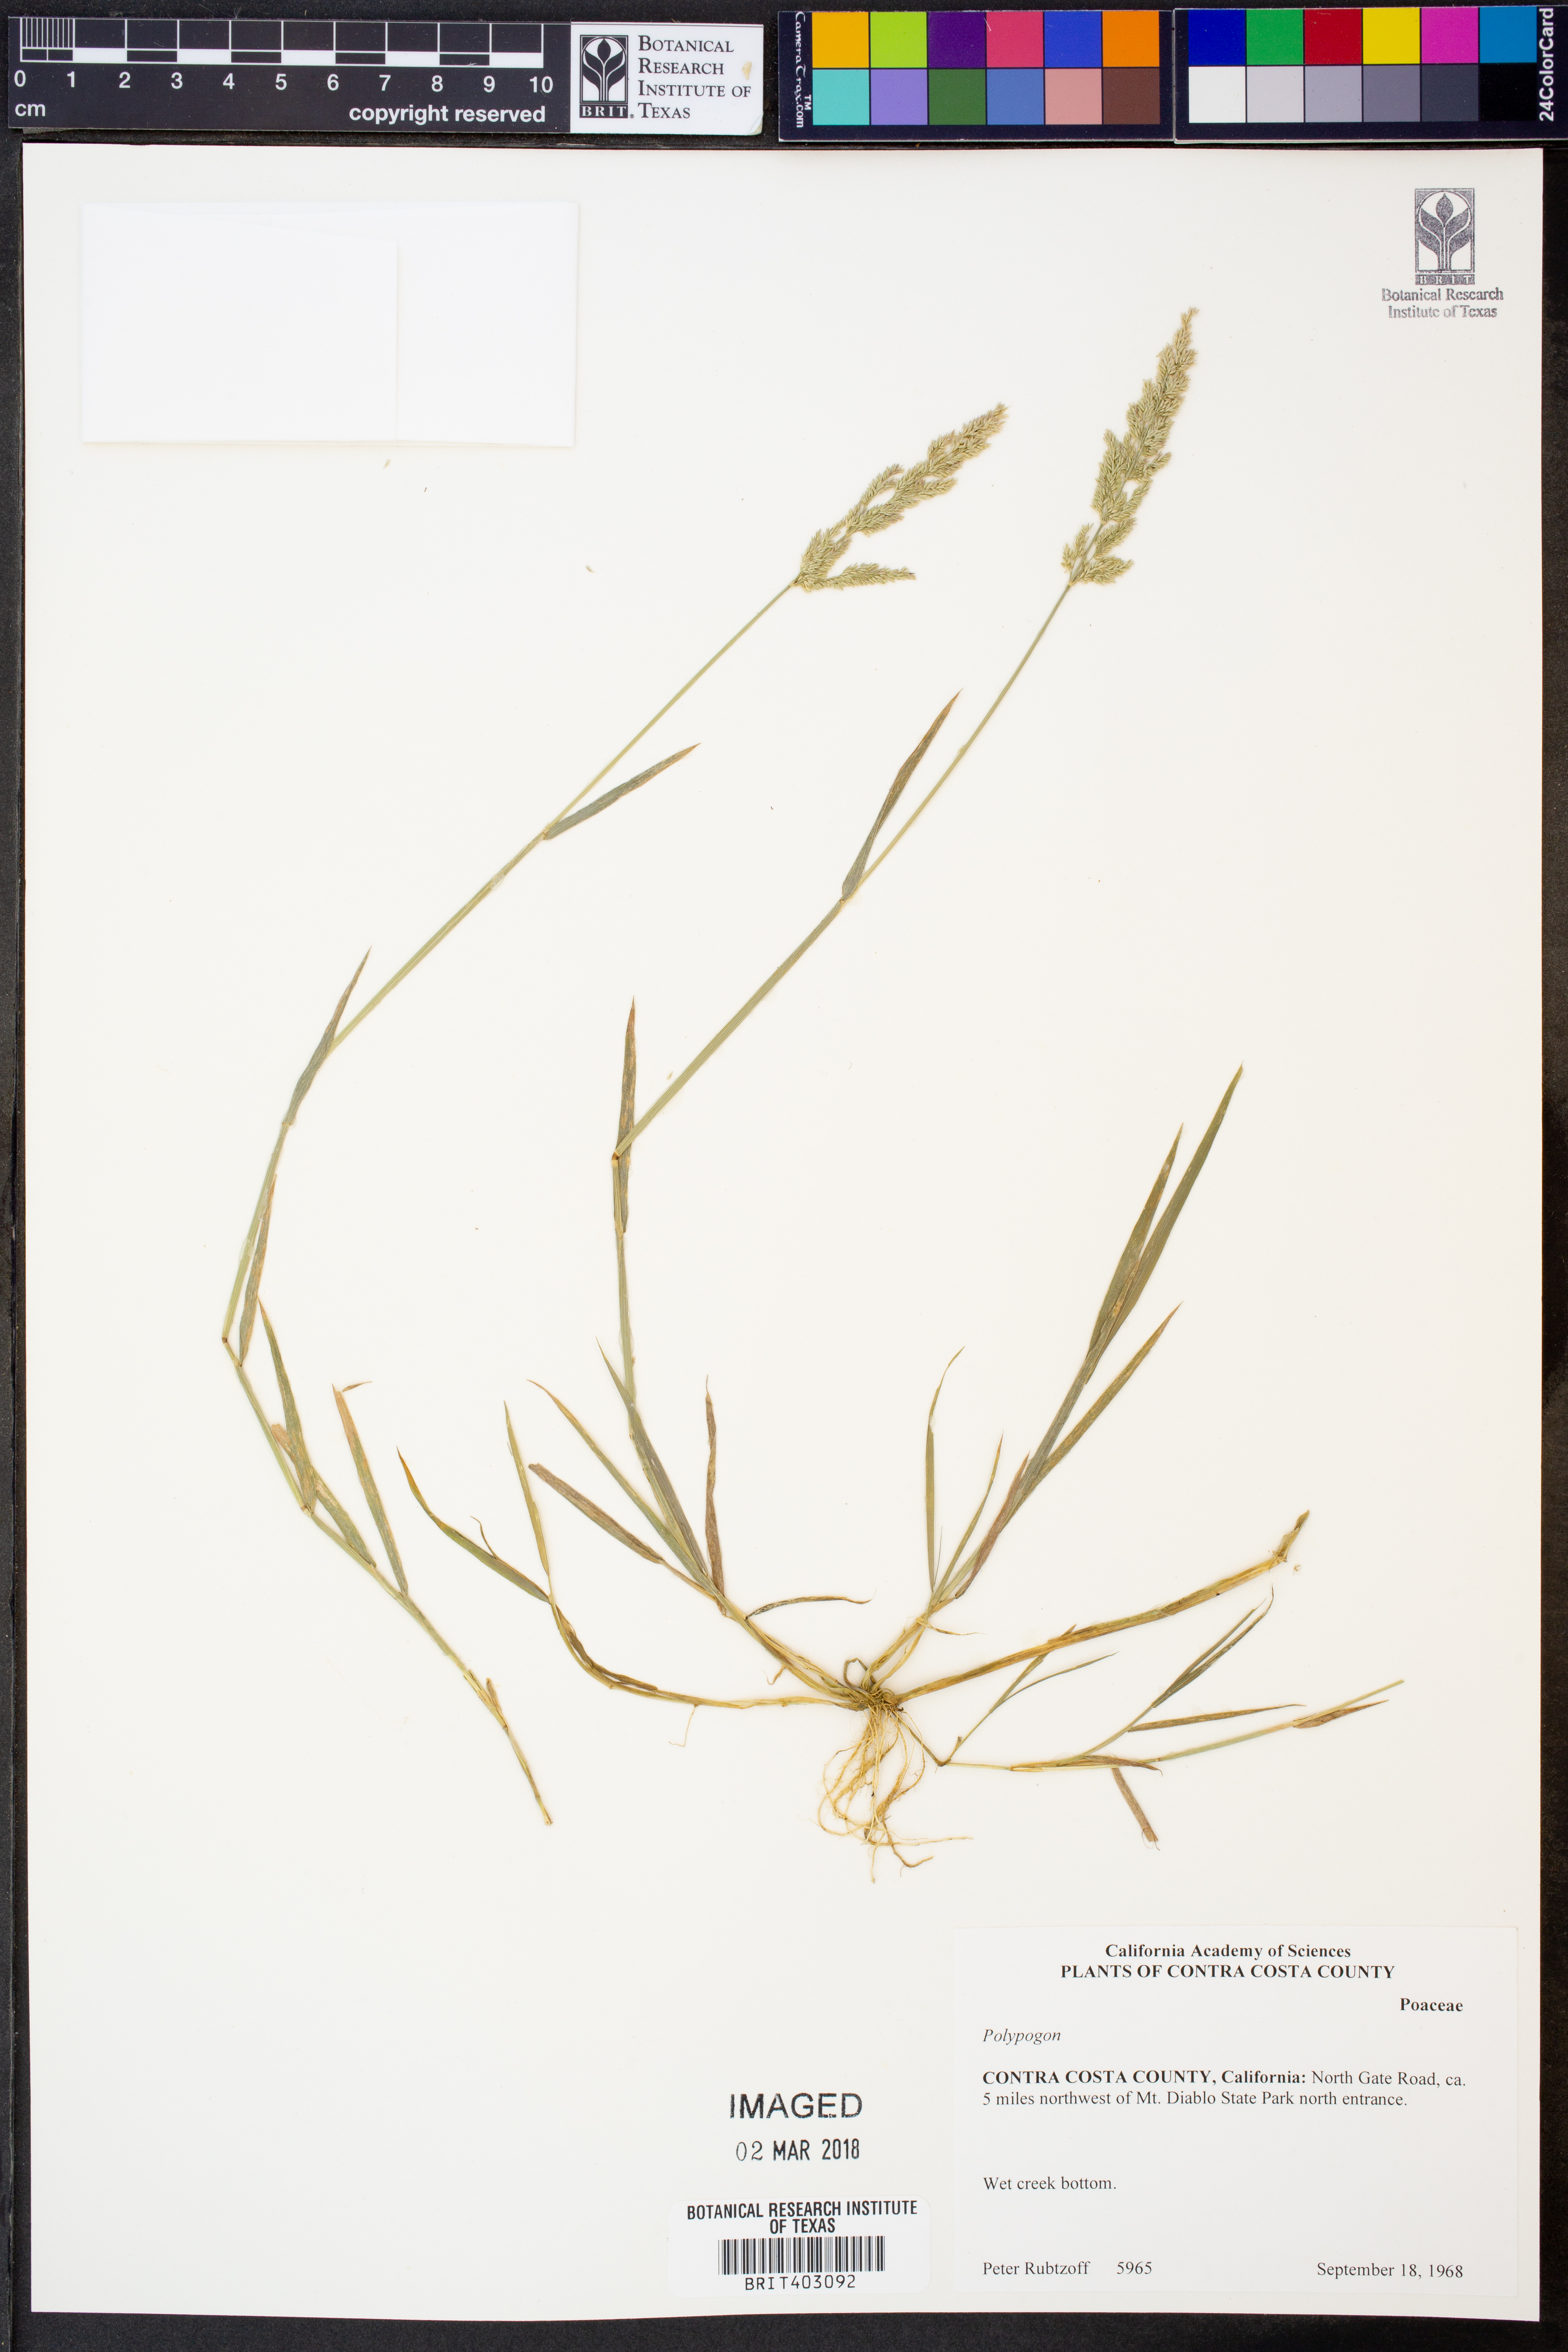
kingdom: Plantae
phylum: Tracheophyta
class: Liliopsida
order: Poales
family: Poaceae
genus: Polypogon
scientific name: Polypogon
